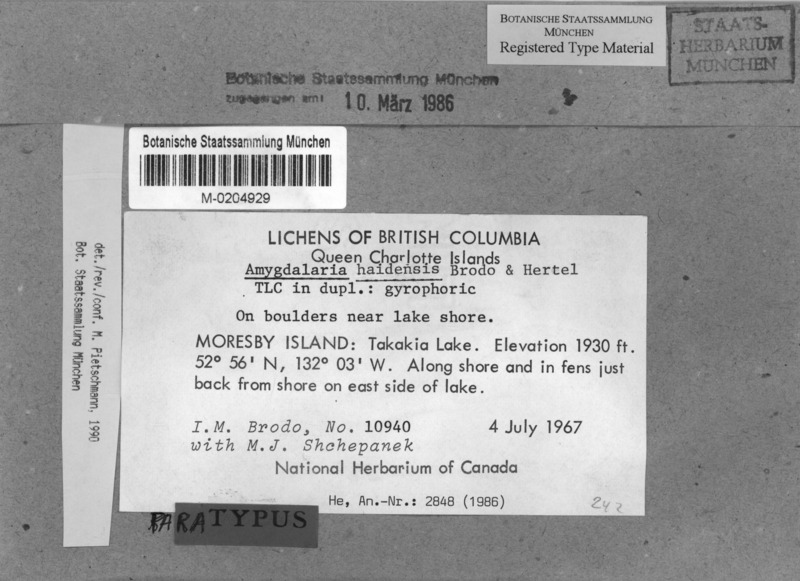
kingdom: Fungi
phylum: Ascomycota
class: Lecanoromycetes
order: Lecideales
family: Lecideaceae
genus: Amygdalaria
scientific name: Amygdalaria haidensis
